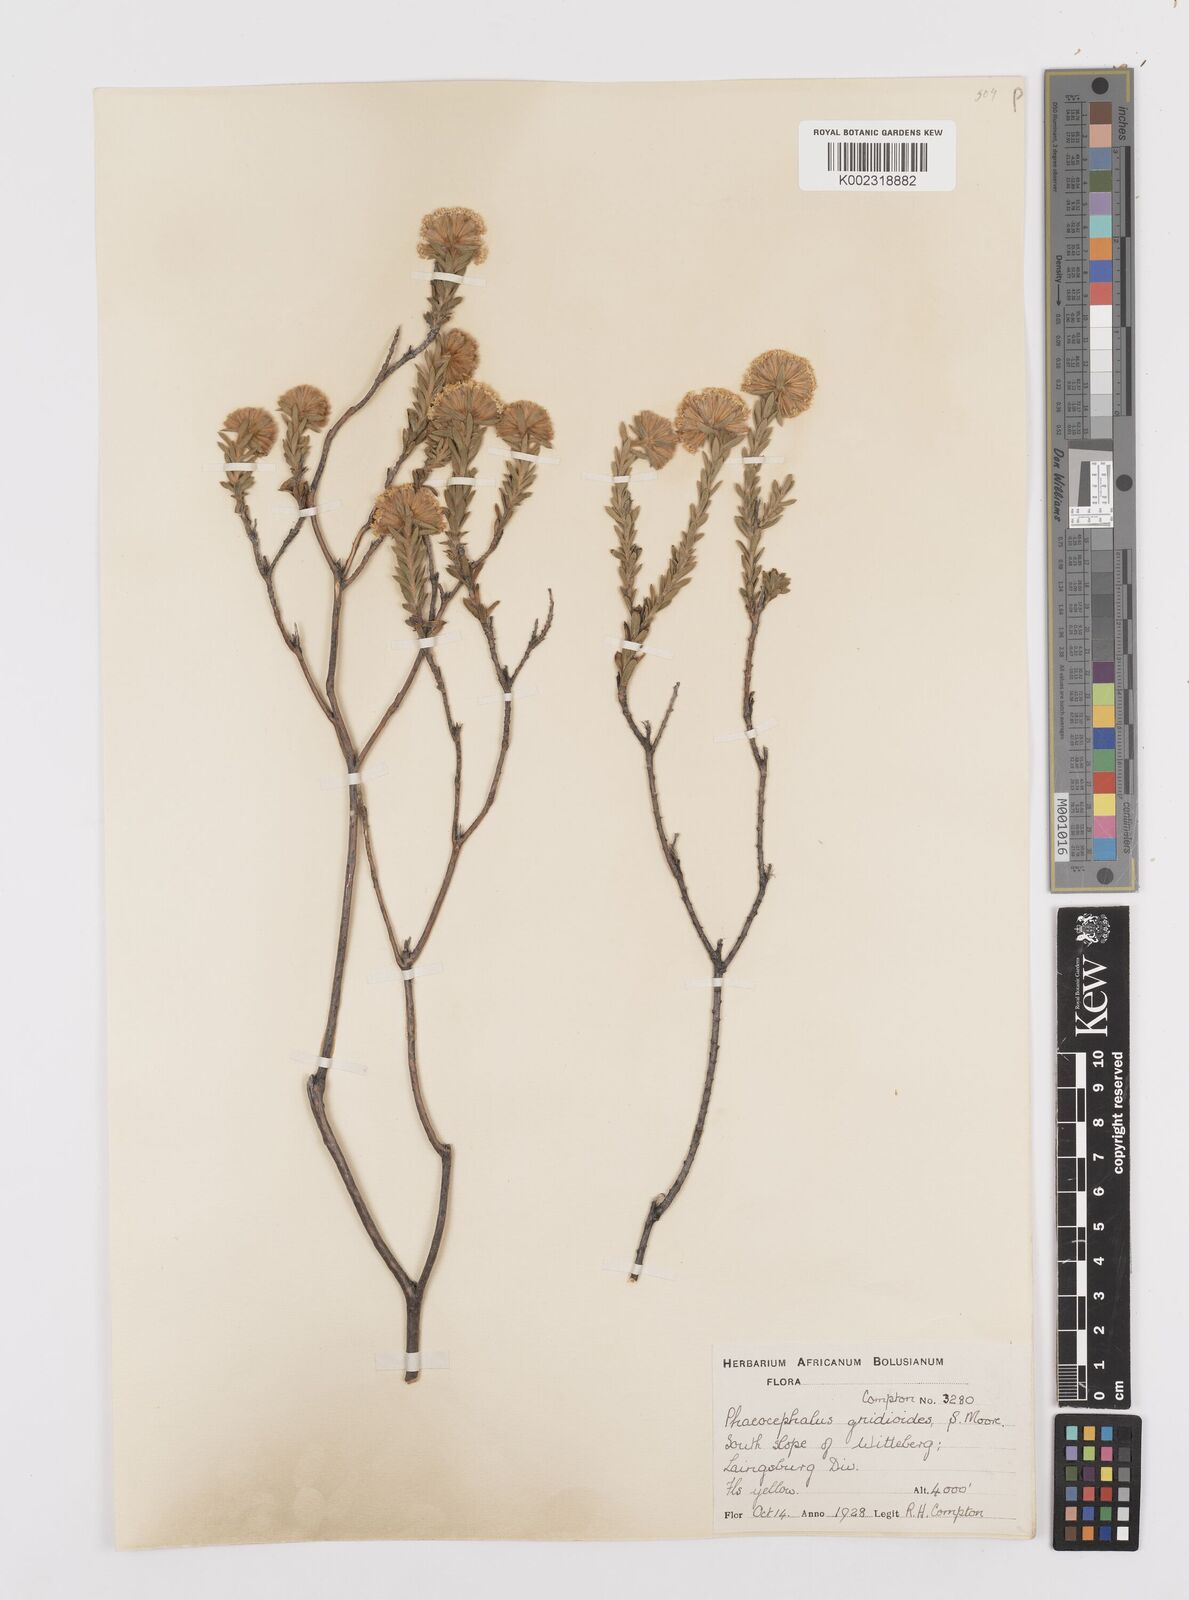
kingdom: Plantae
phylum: Tracheophyta
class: Magnoliopsida
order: Asterales
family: Asteraceae
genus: Hymenolepis
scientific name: Hymenolepis gnidioides
